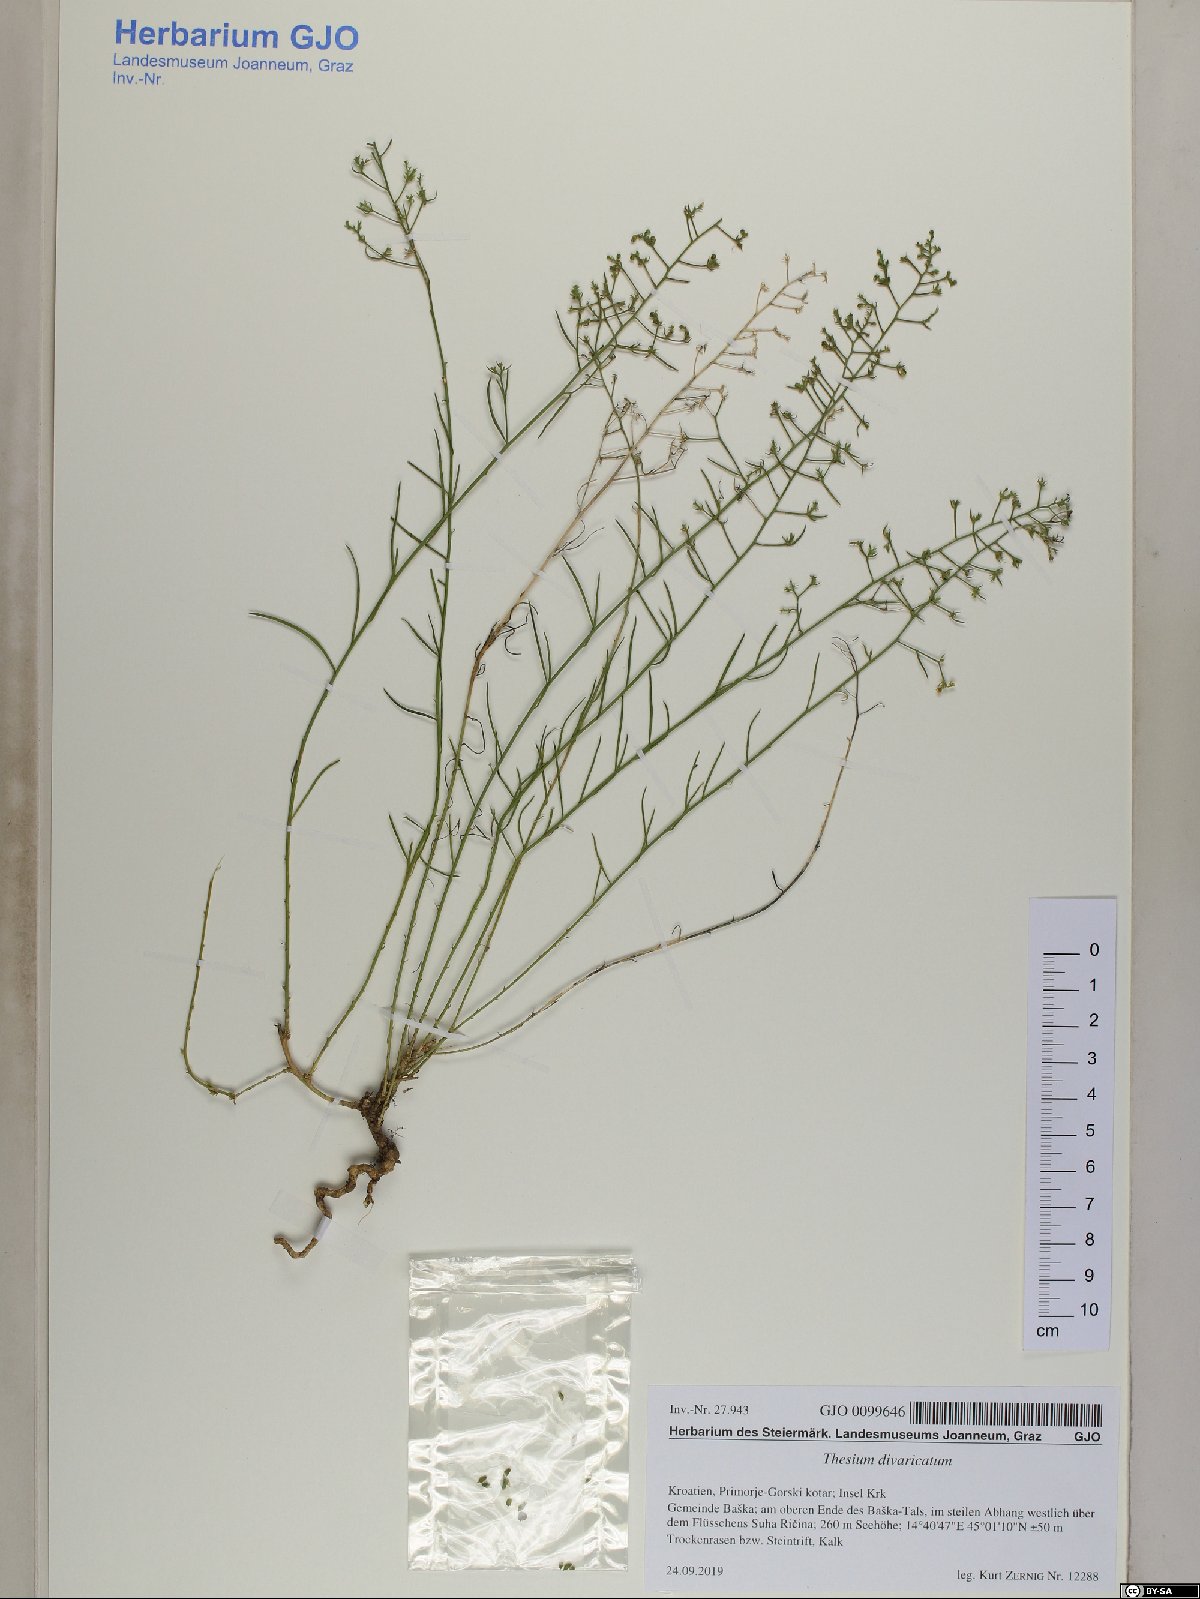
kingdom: Plantae
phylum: Tracheophyta
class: Magnoliopsida
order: Santalales
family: Thesiaceae
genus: Thesium
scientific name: Thesium divaricatum
